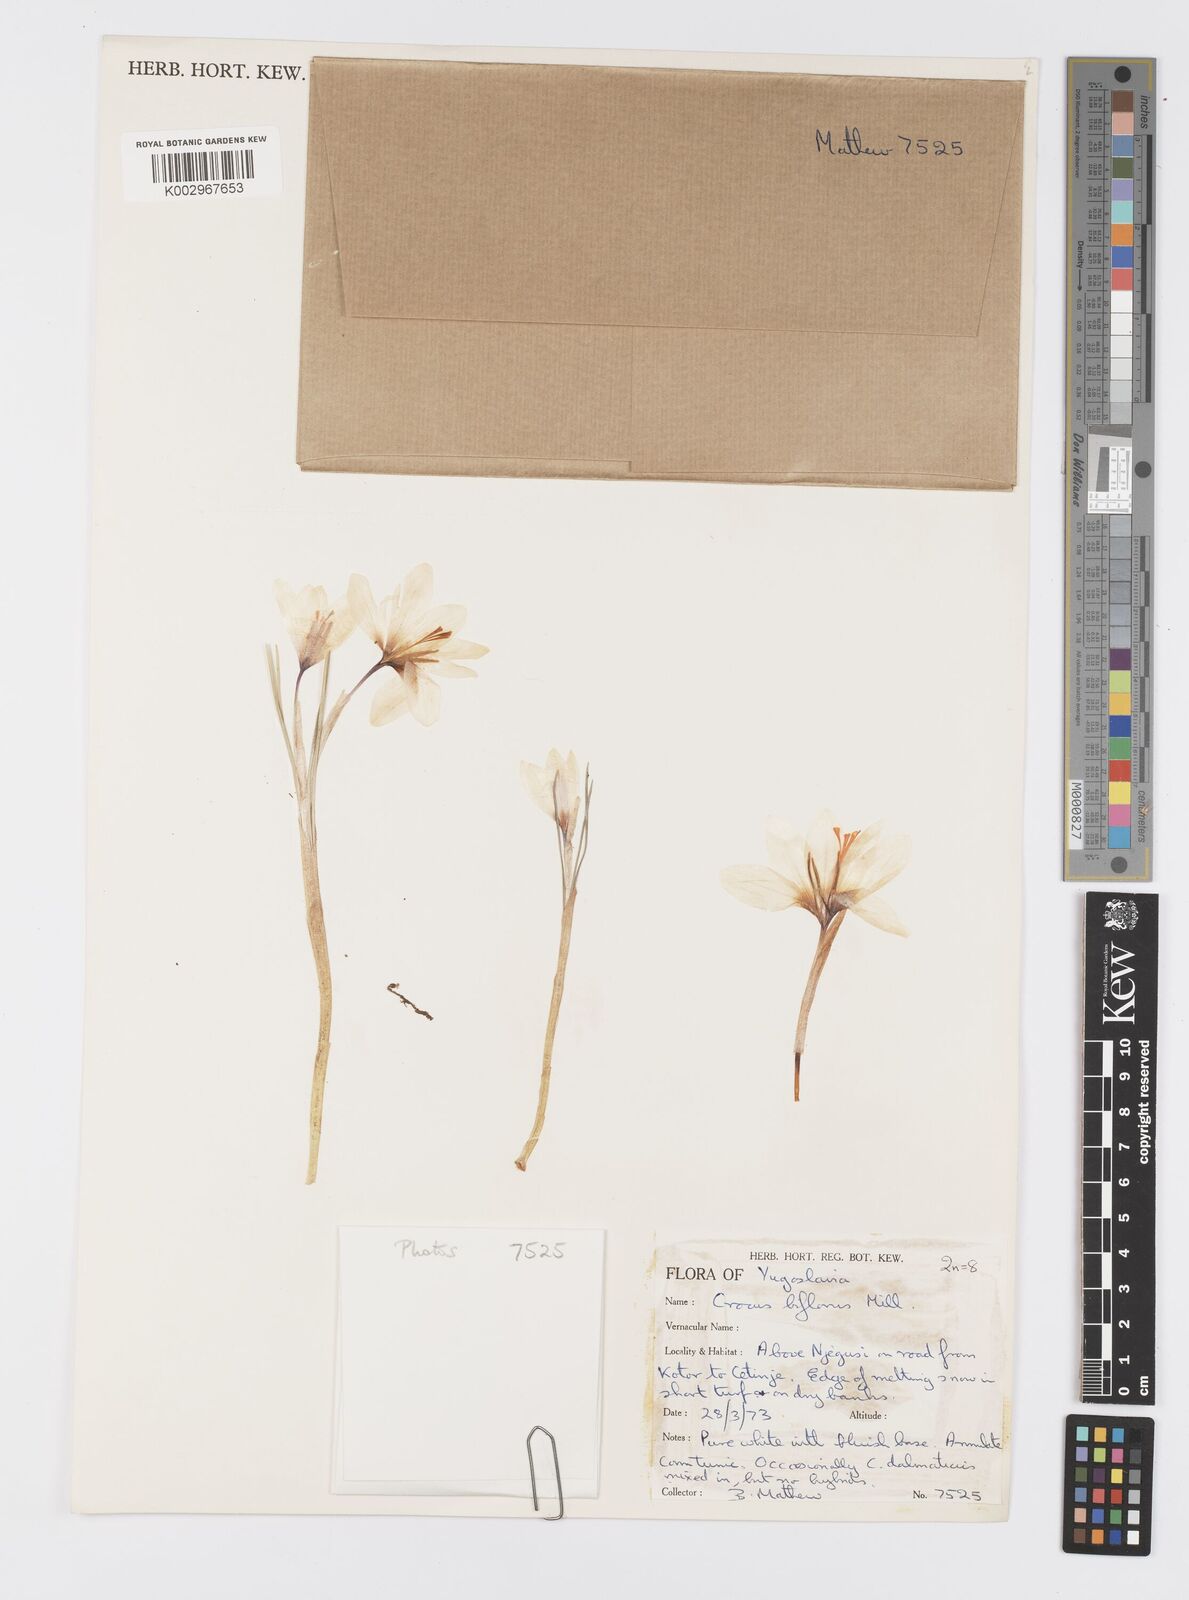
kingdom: Plantae
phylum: Tracheophyta
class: Liliopsida
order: Asparagales
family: Iridaceae
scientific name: Iridaceae
